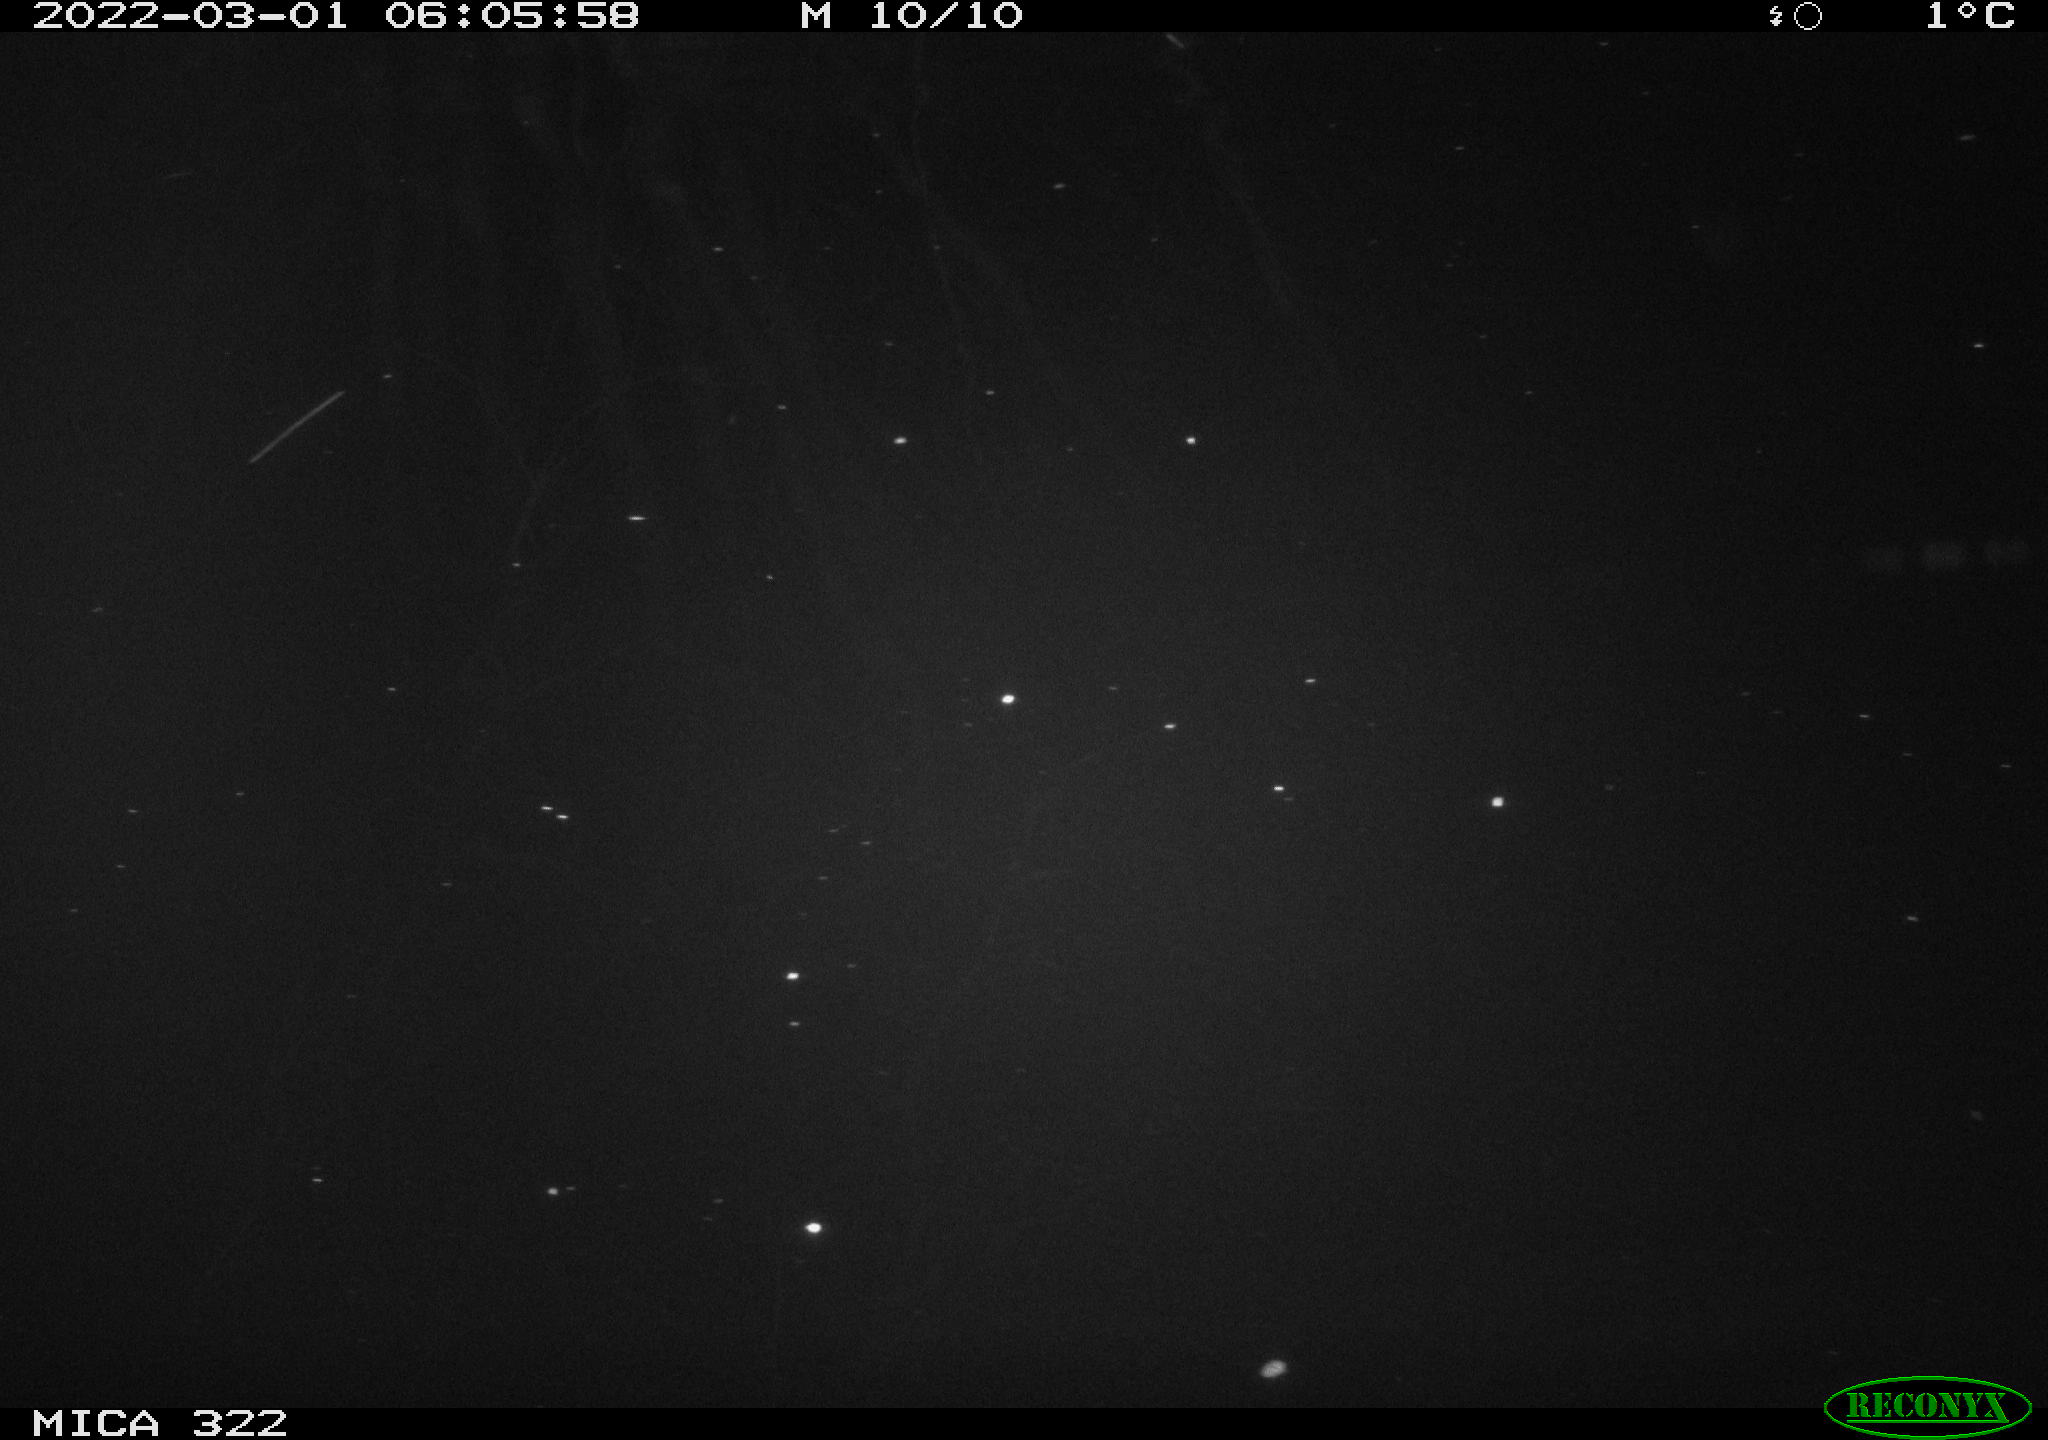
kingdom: Animalia
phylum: Chordata
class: Aves
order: Gruiformes
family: Rallidae
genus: Gallinula
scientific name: Gallinula chloropus
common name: Common moorhen
